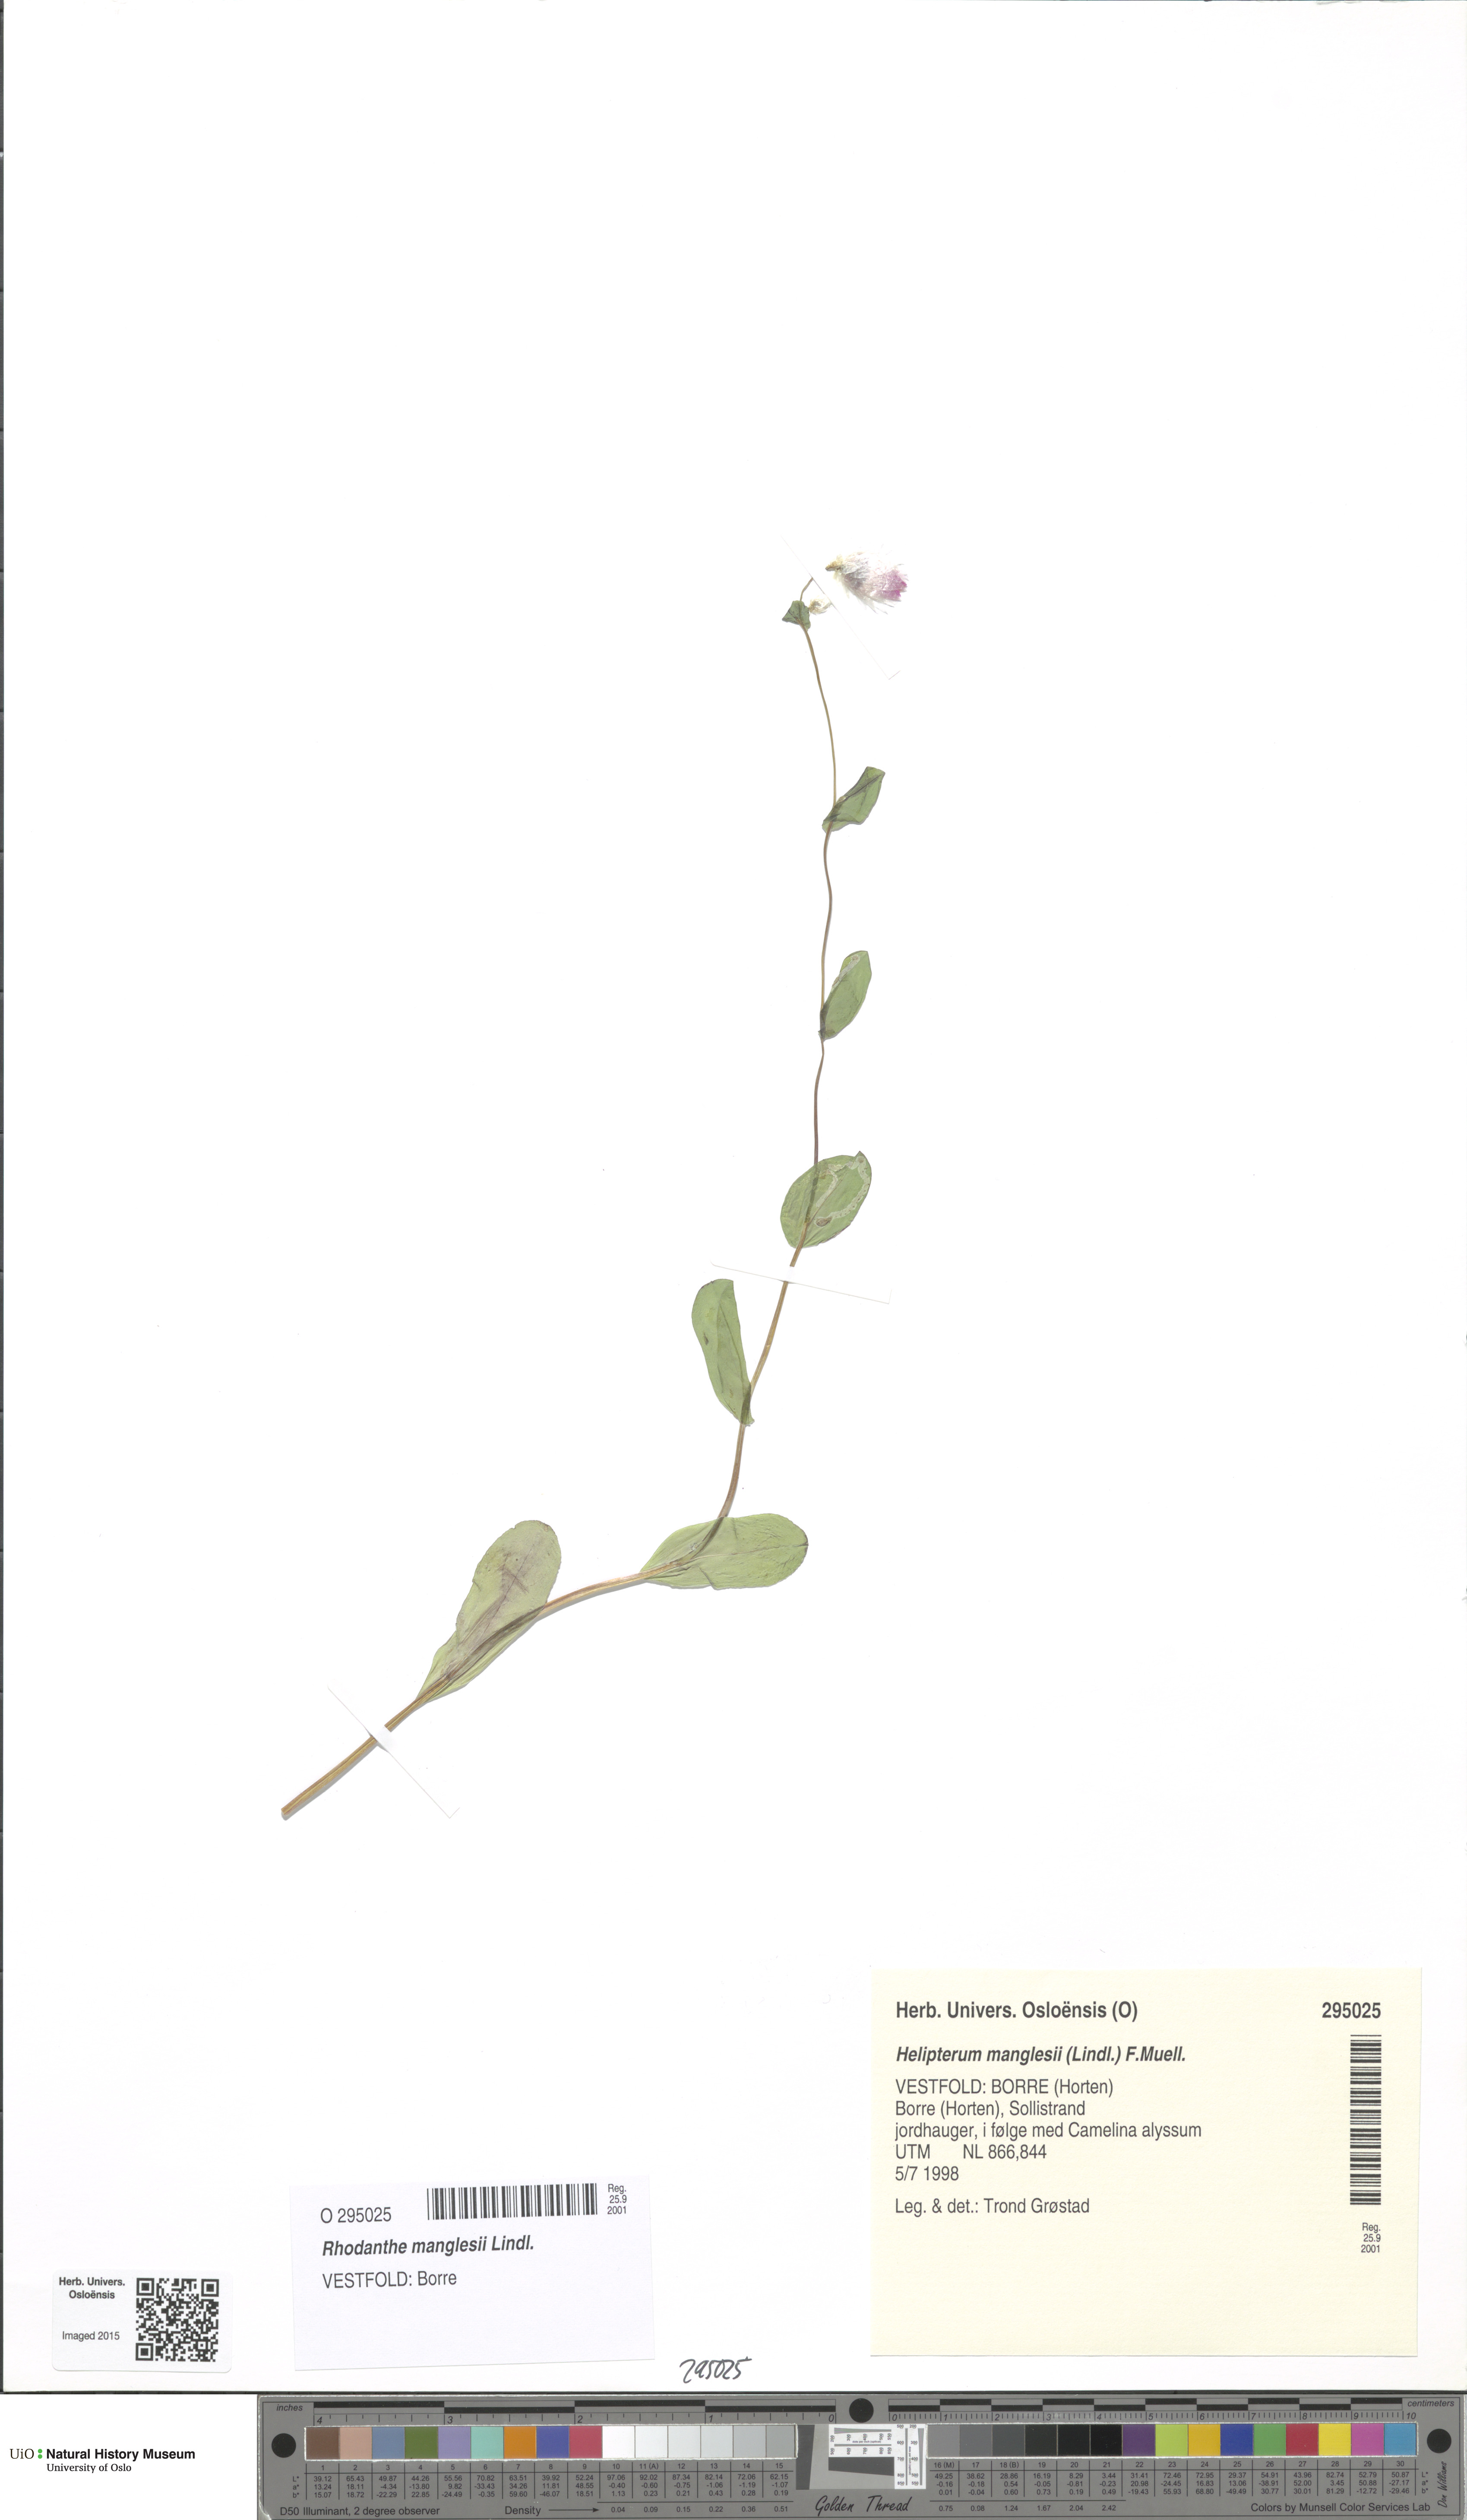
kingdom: Plantae
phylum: Tracheophyta
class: Magnoliopsida
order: Asterales
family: Asteraceae
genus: Rhodanthe
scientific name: Rhodanthe manglesii
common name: Pink sunray
